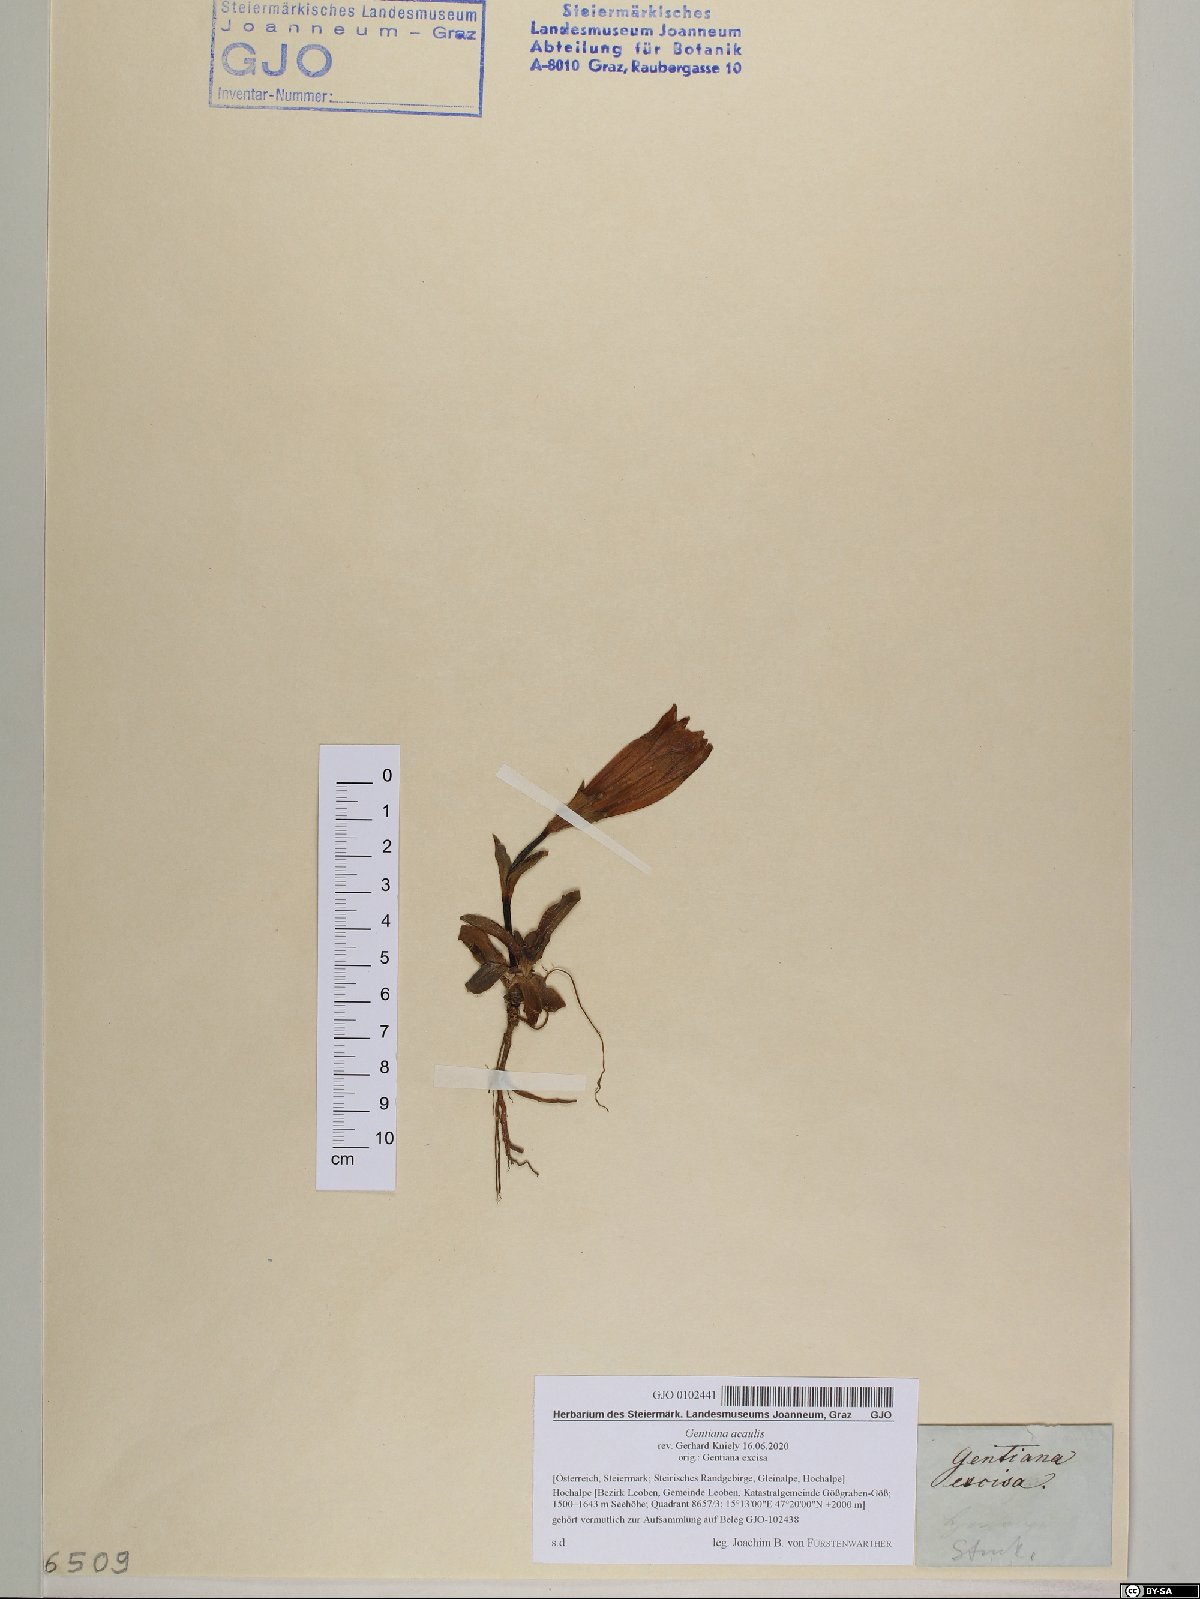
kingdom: Plantae
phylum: Tracheophyta
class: Magnoliopsida
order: Gentianales
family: Gentianaceae
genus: Gentiana
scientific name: Gentiana acaulis
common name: Trumpet gentian
